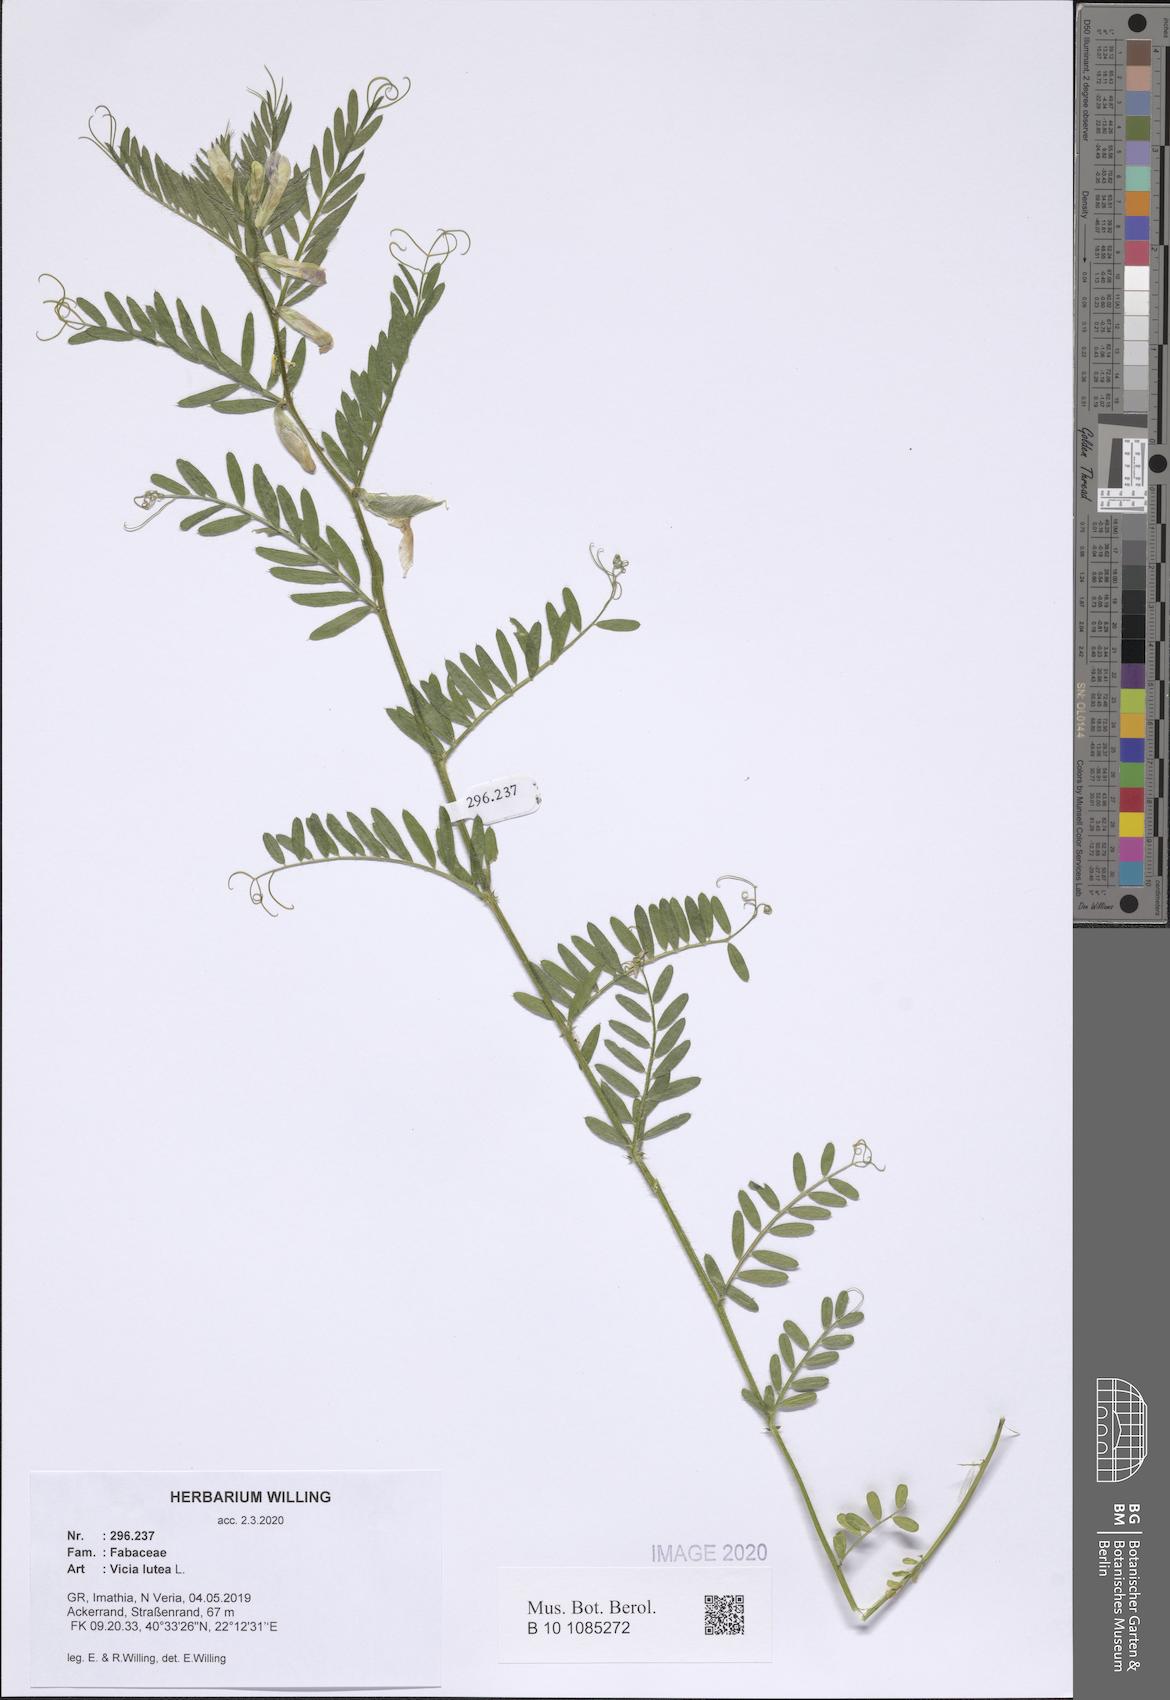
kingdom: Plantae
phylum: Tracheophyta
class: Magnoliopsida
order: Fabales
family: Fabaceae
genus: Vicia
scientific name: Vicia lutea
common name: Smooth yellow vetch
